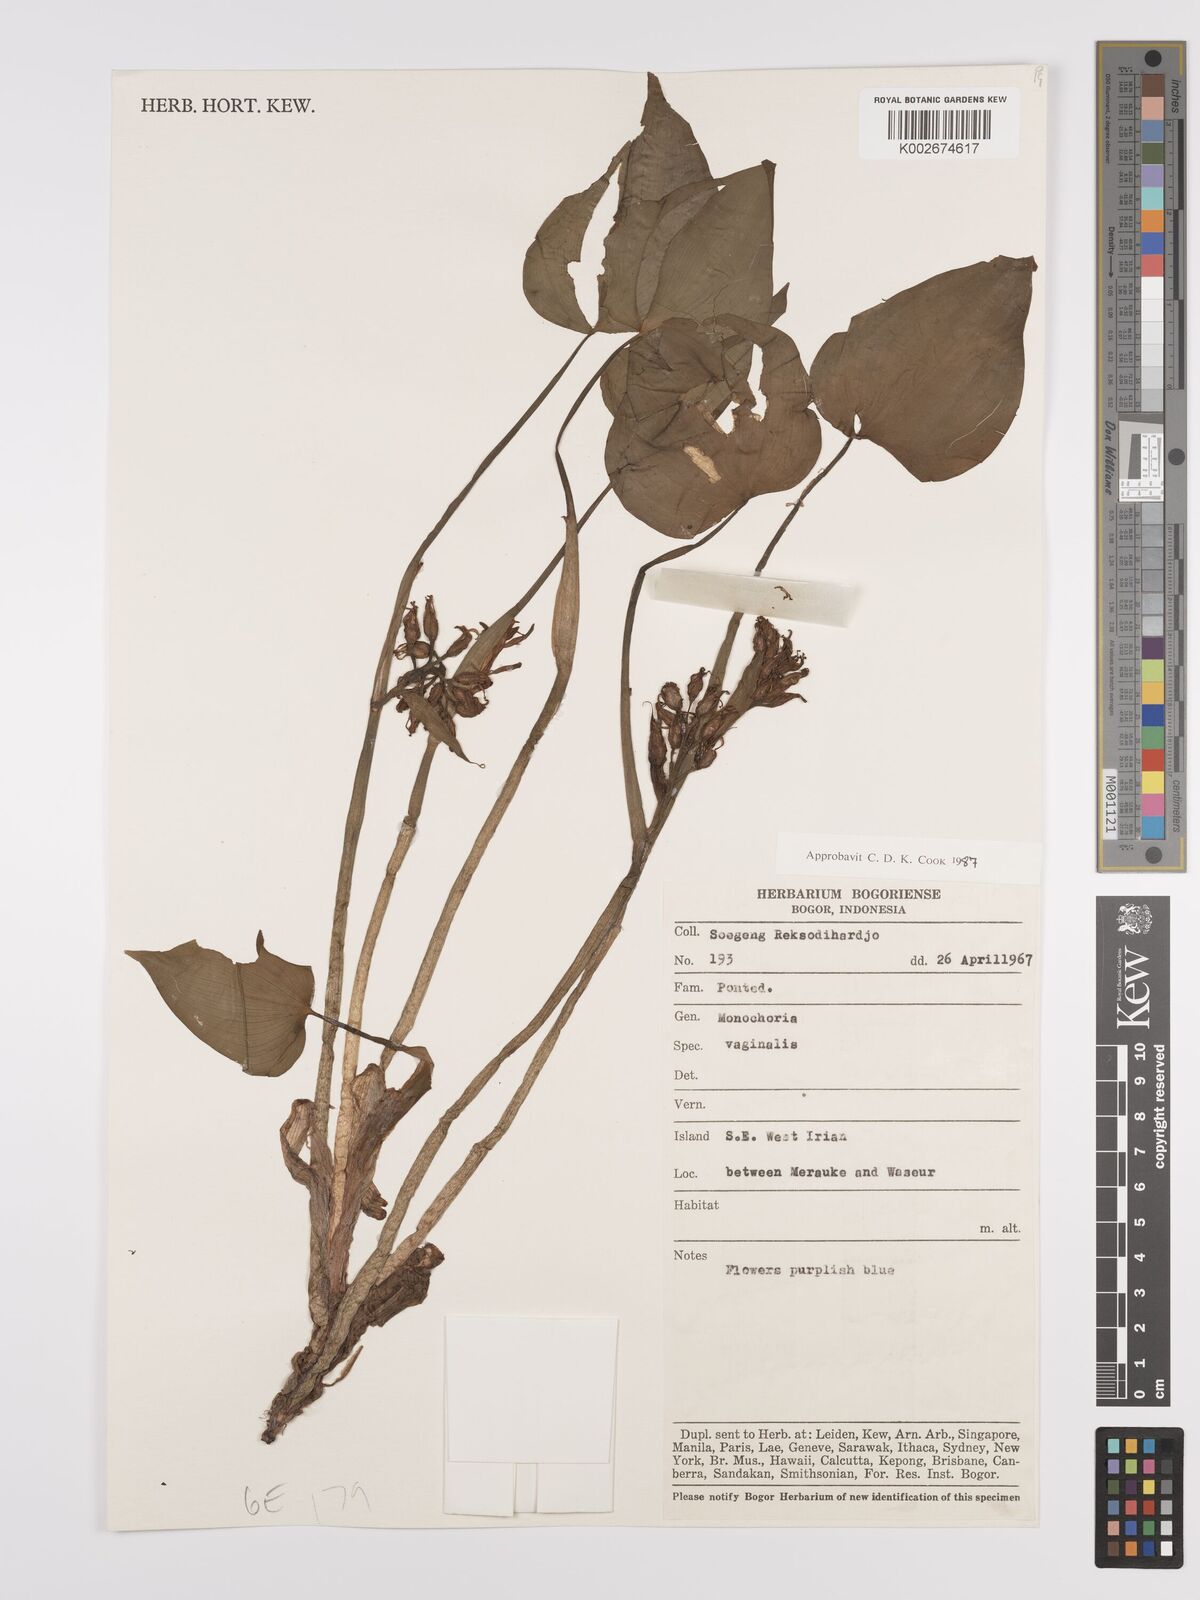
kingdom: Plantae
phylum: Tracheophyta
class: Liliopsida
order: Commelinales
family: Pontederiaceae
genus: Pontederia
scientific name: Pontederia vaginalis
